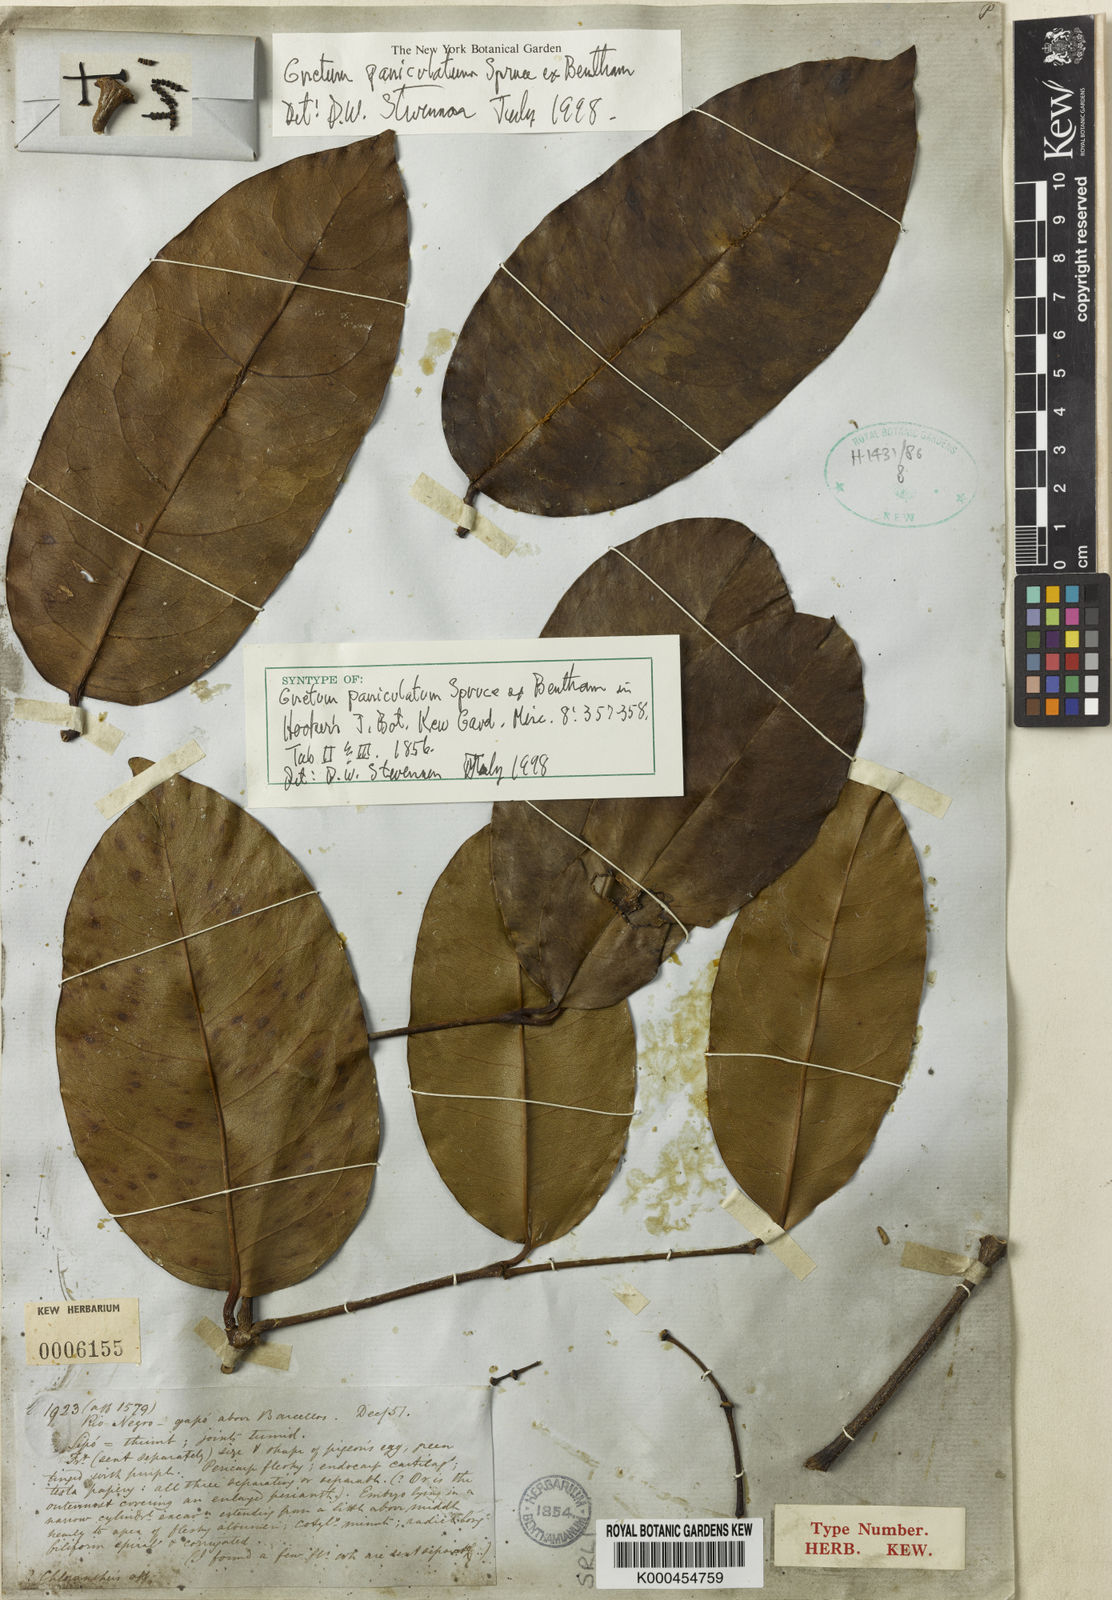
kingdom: Plantae
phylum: Tracheophyta
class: Gnetopsida
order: Gnetales
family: Gnetaceae
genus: Gnetum
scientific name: Gnetum paniculatum
